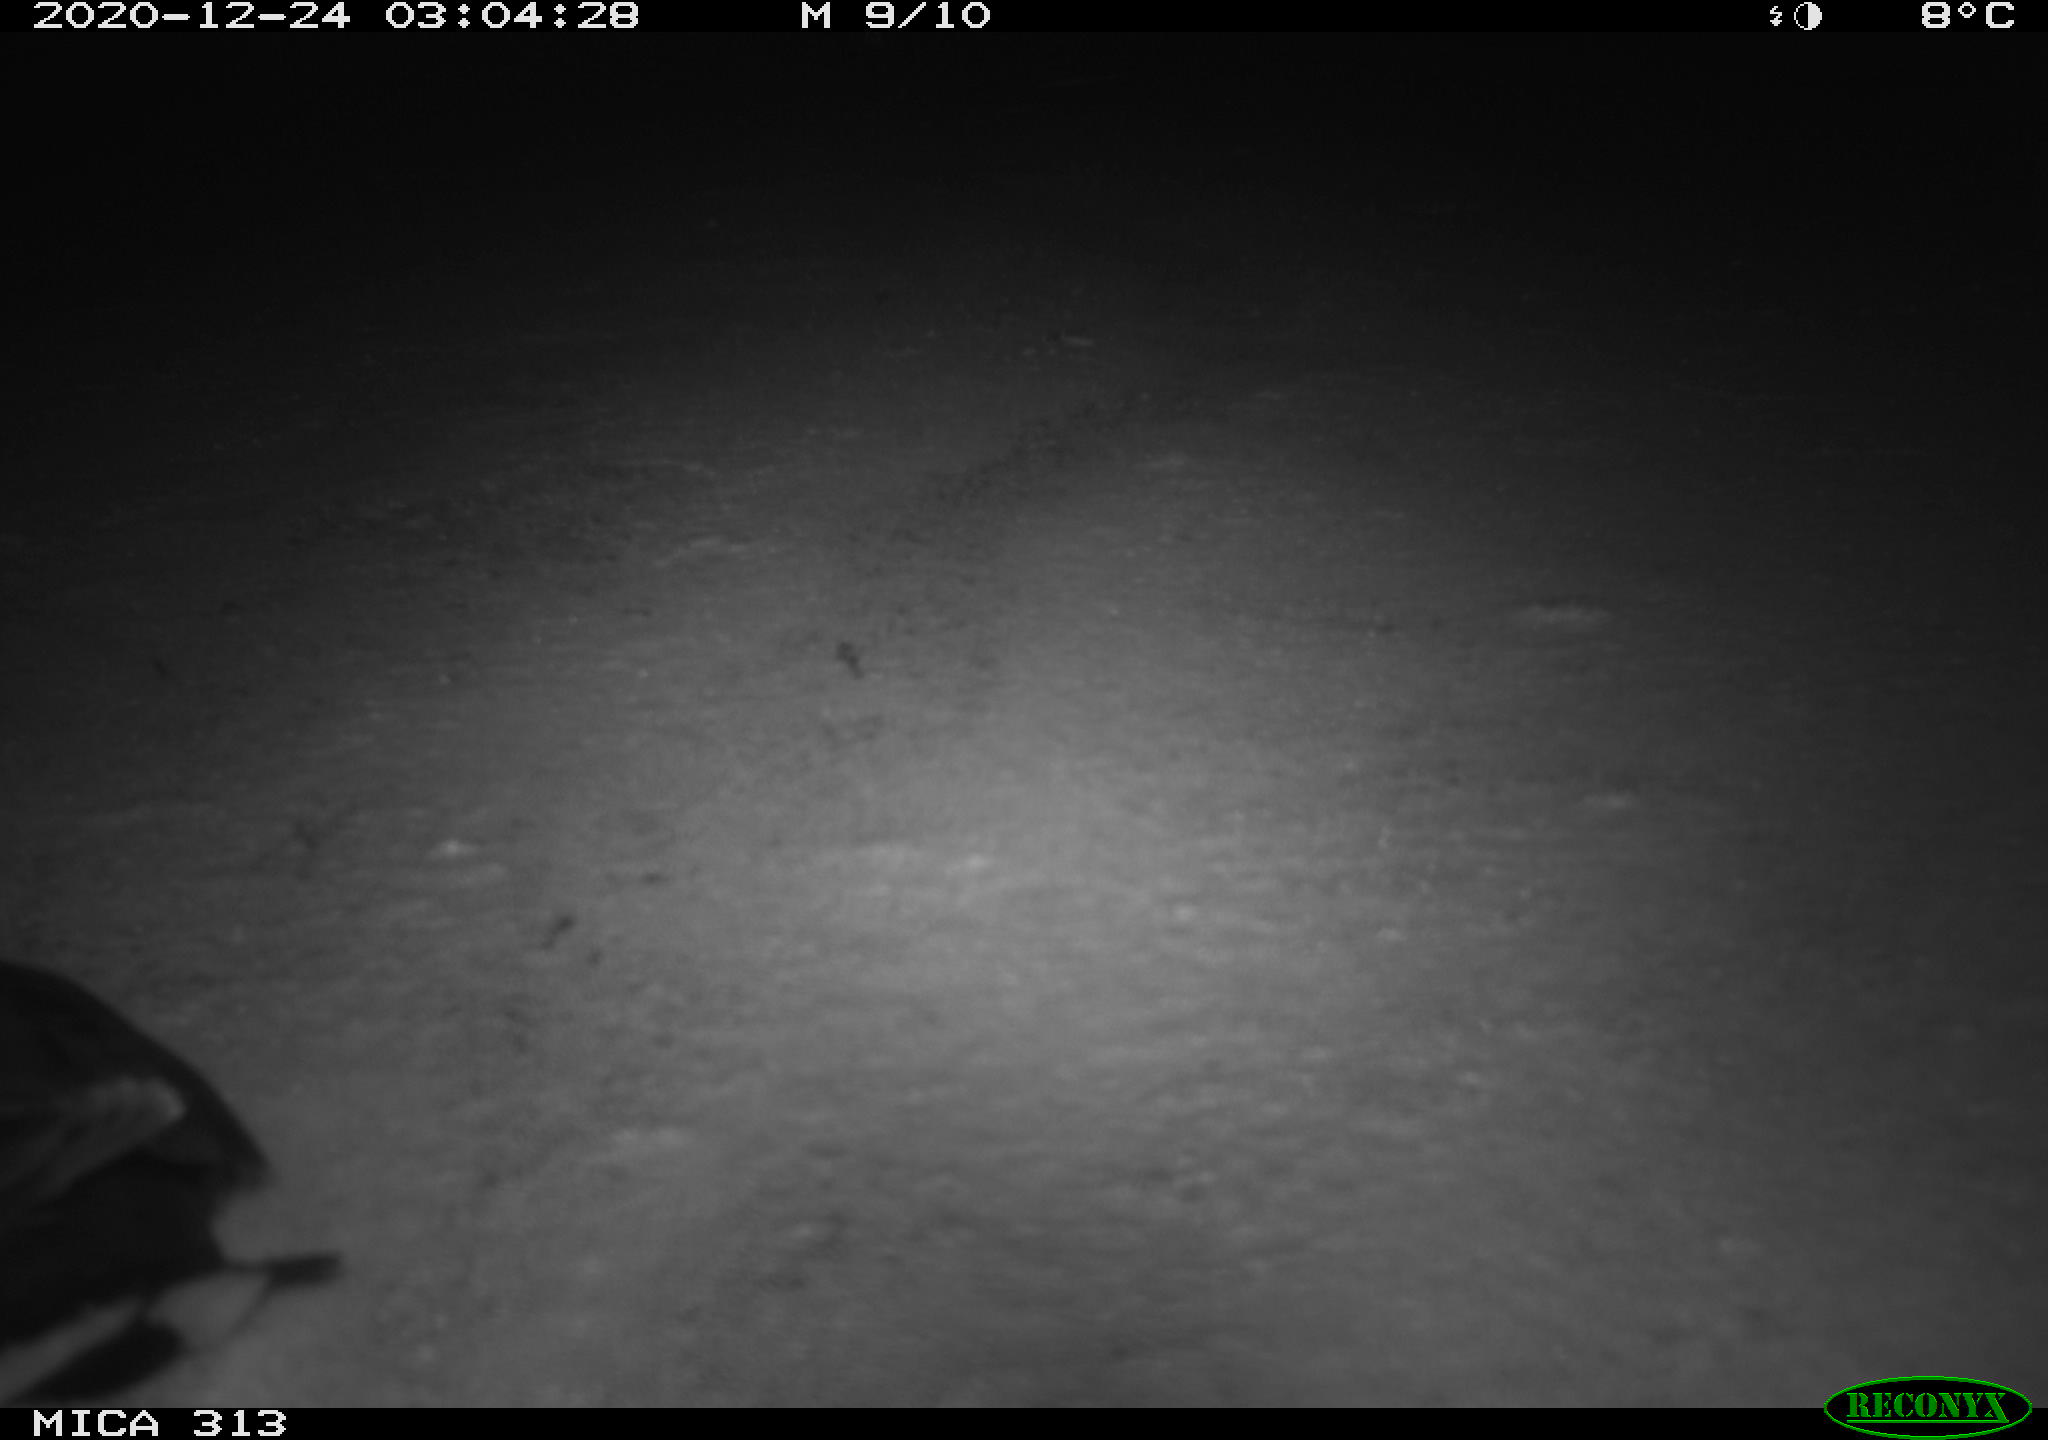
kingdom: Animalia
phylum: Chordata
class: Aves
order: Gruiformes
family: Rallidae
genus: Gallinula
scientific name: Gallinula chloropus
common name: Common moorhen
